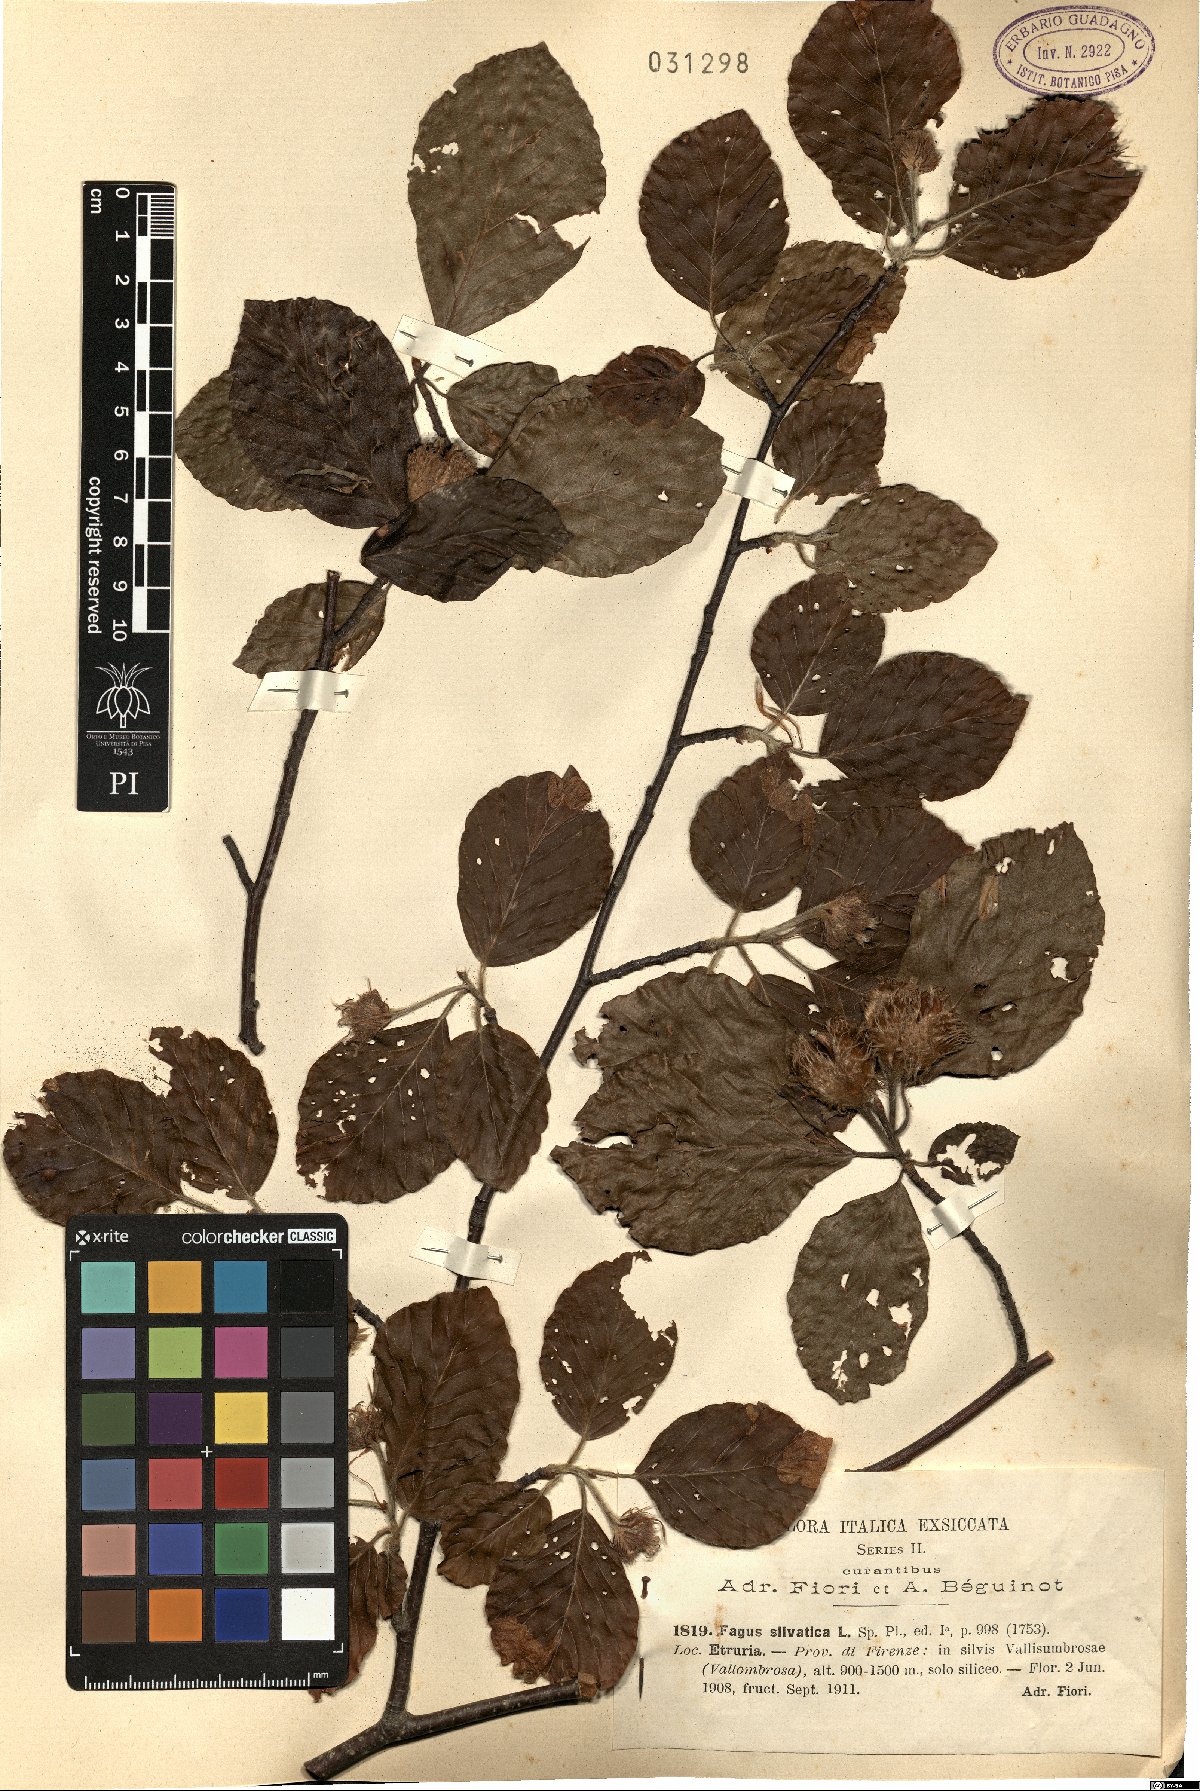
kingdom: Plantae
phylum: Tracheophyta
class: Magnoliopsida
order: Fagales
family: Fagaceae
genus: Fagus
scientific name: Fagus sylvatica
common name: Beech
